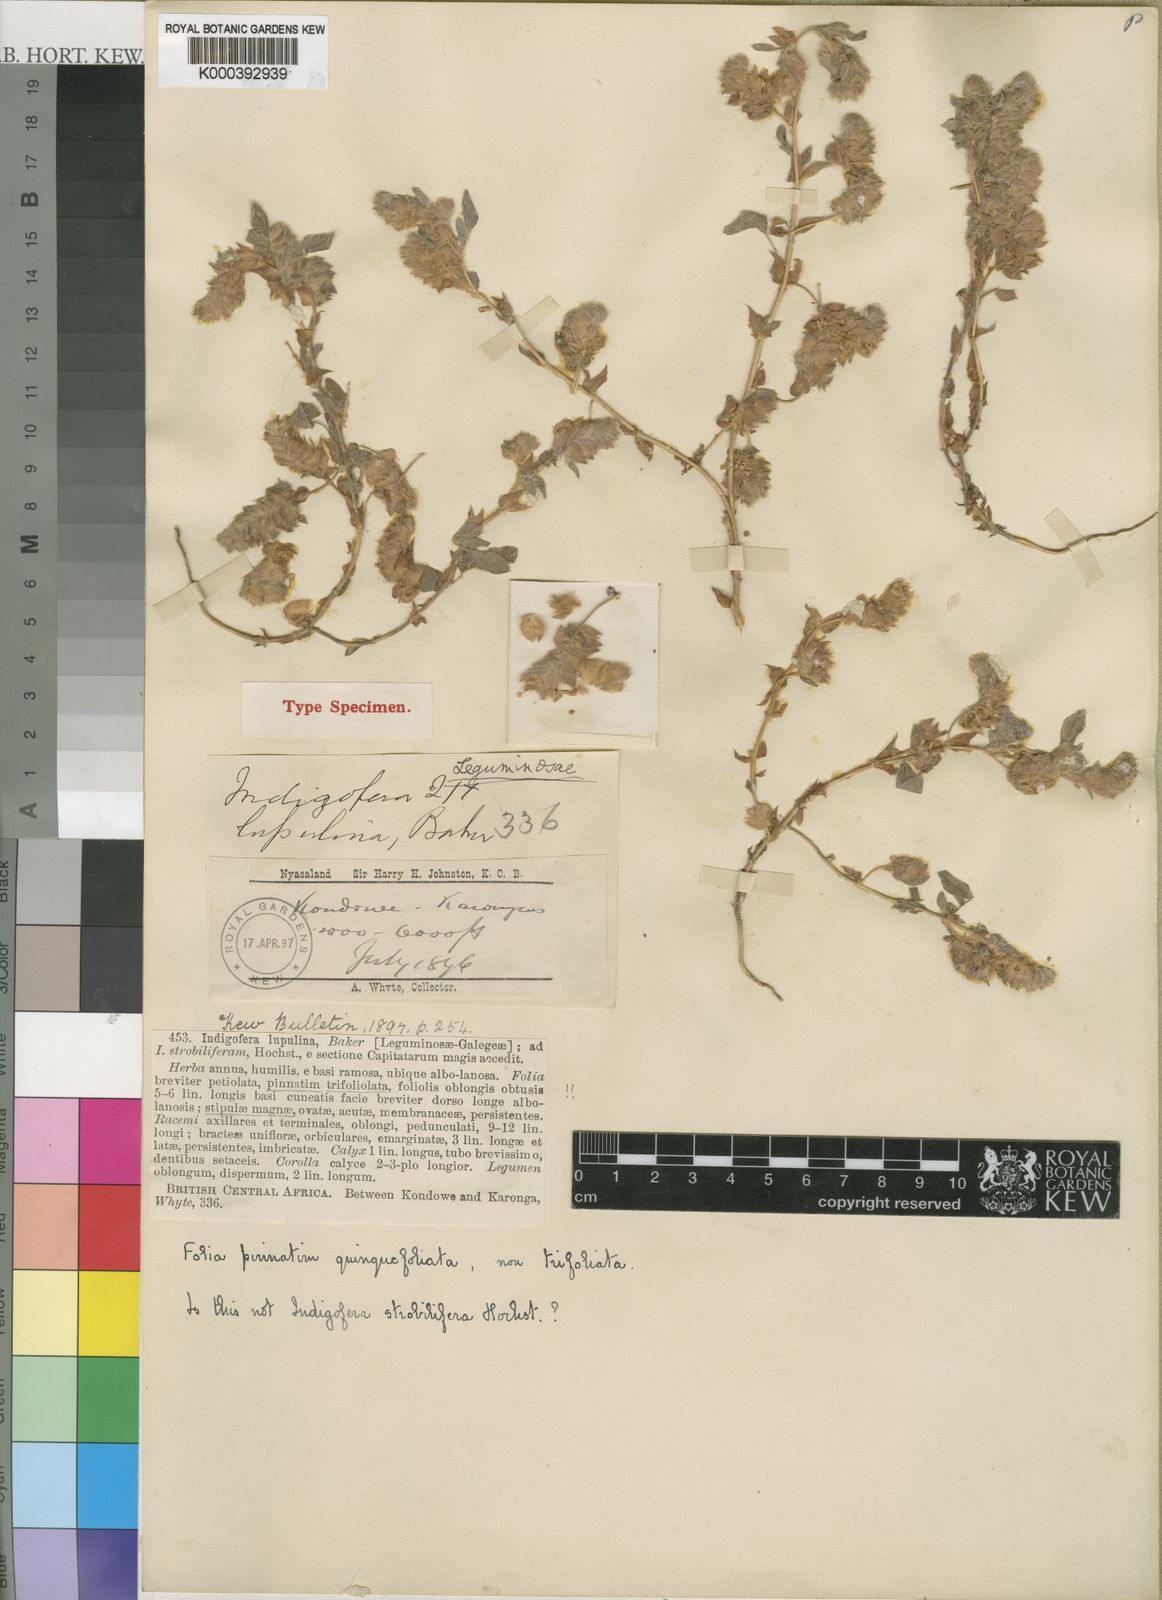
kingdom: Plantae
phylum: Tracheophyta
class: Magnoliopsida
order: Fabales
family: Fabaceae
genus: Indigofera
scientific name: Indigofera strobilifera
